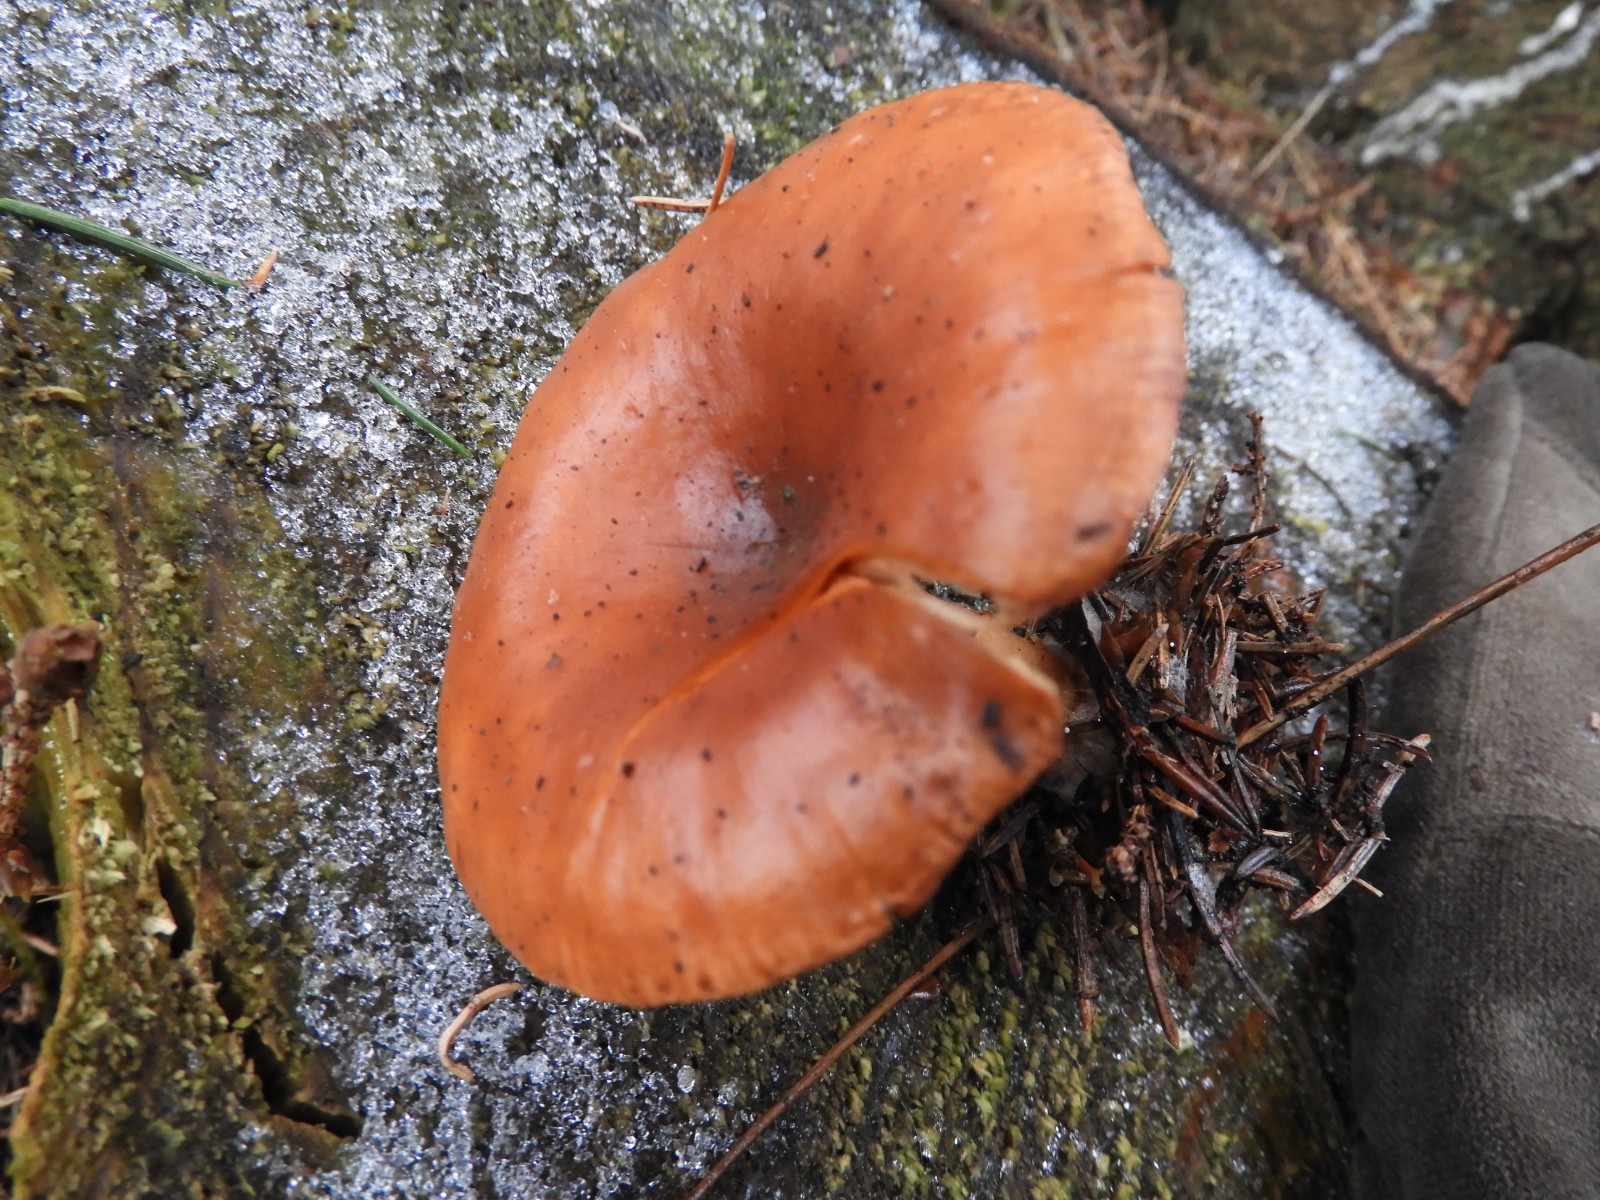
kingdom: Fungi
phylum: Basidiomycota
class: Agaricomycetes
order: Agaricales
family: Tricholomataceae
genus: Paralepista
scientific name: Paralepista flaccida
